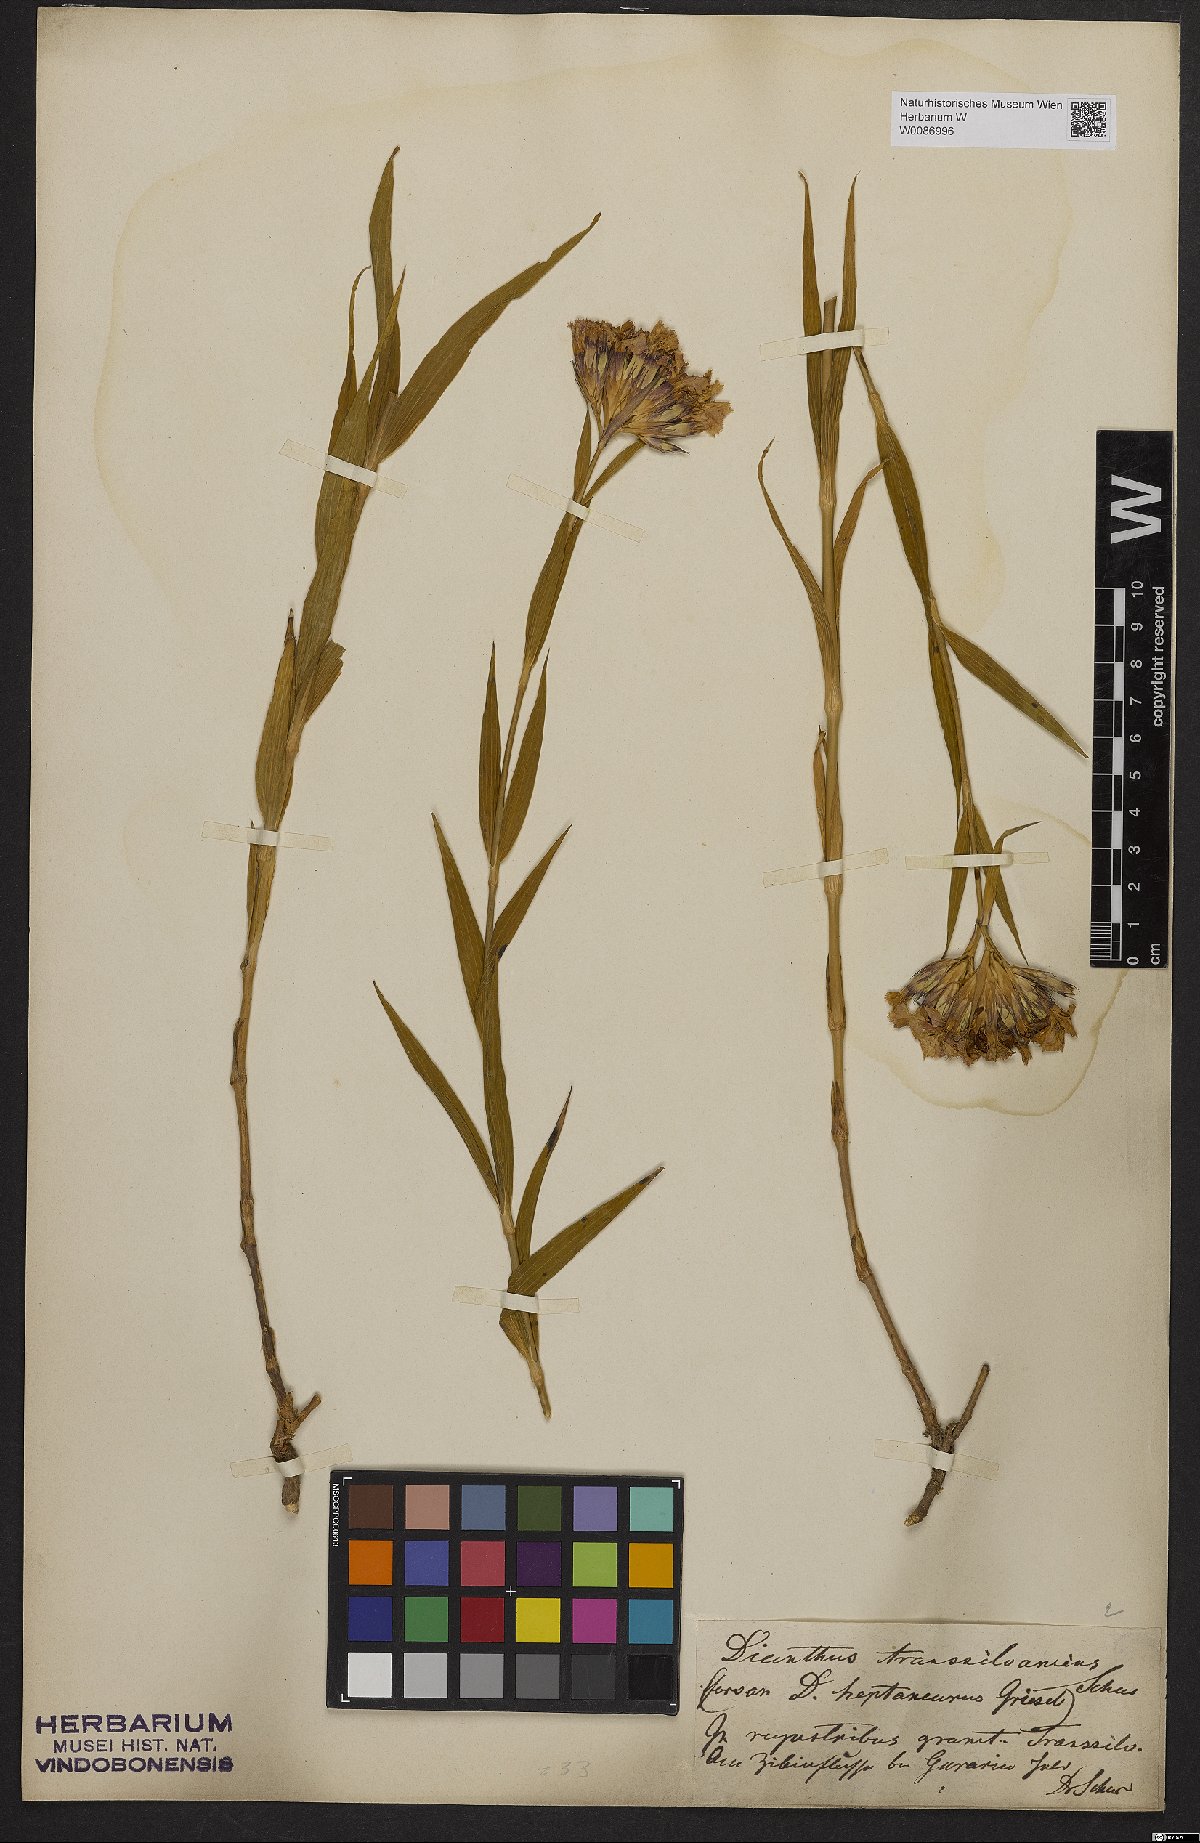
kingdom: Plantae
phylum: Tracheophyta
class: Magnoliopsida
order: Caryophyllales
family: Caryophyllaceae
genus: Dianthus
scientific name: Dianthus trifasciculatus
